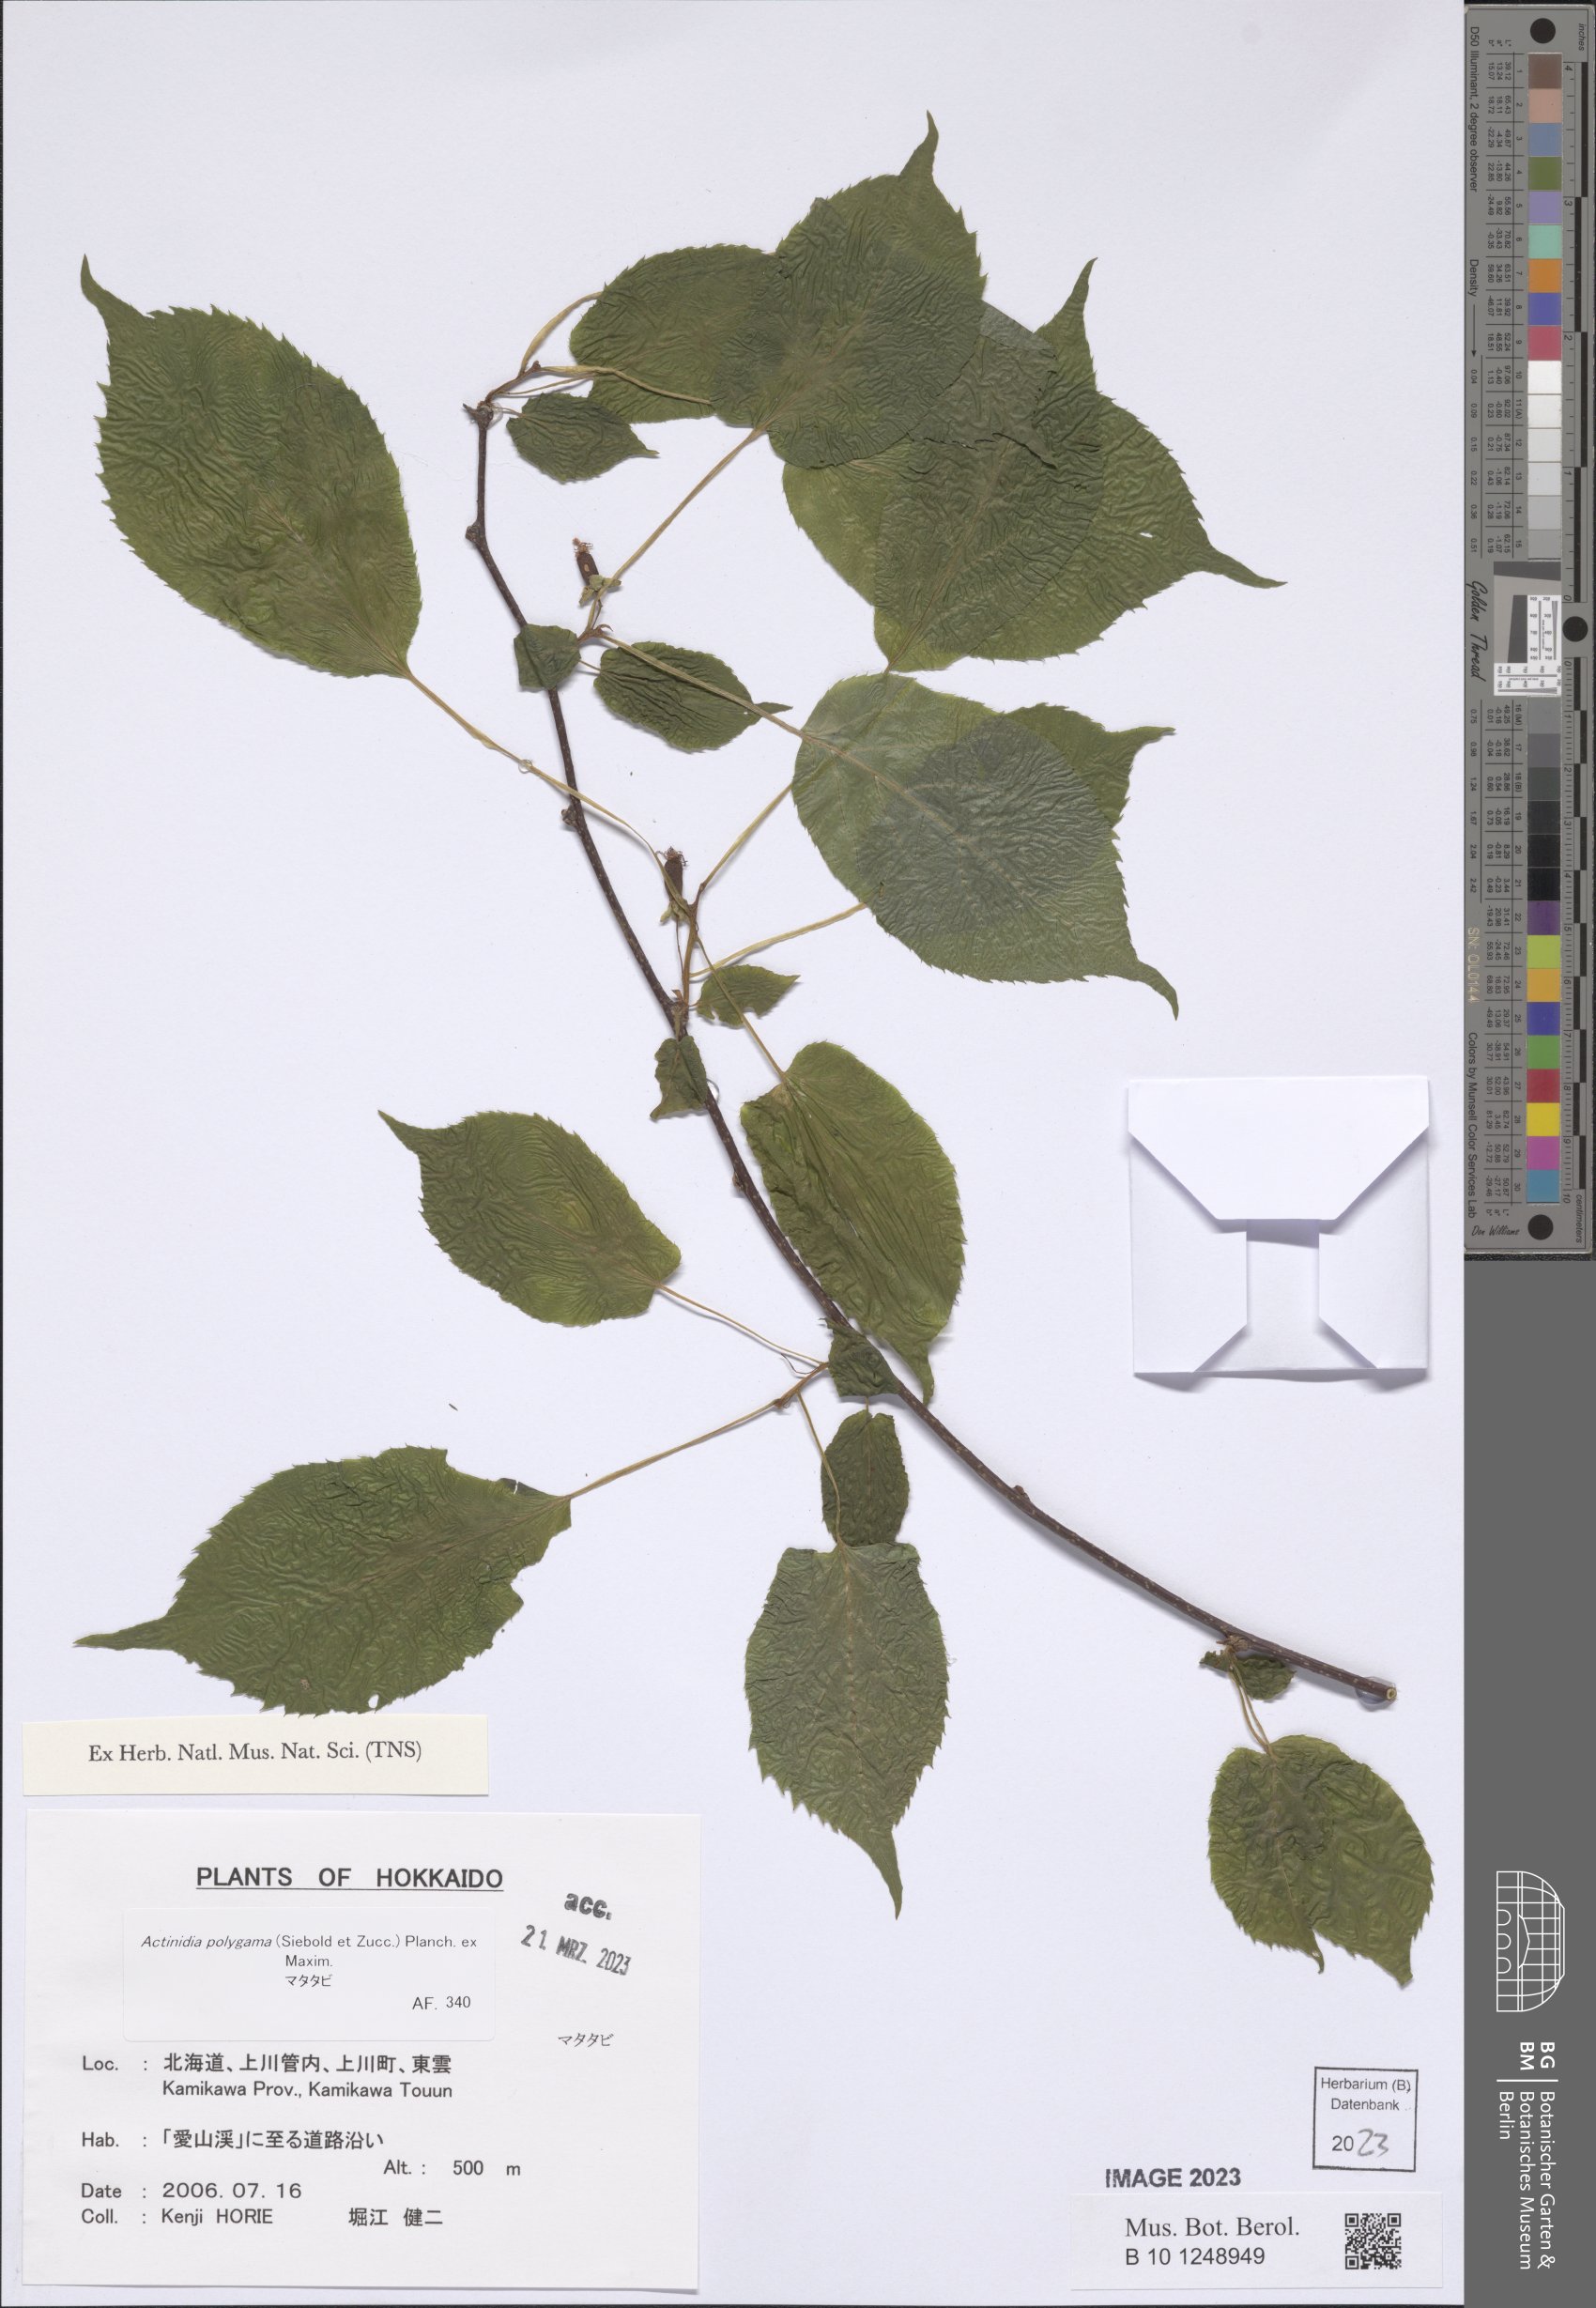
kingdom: Plantae
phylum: Tracheophyta
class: Magnoliopsida
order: Ericales
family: Actinidiaceae
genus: Actinidia
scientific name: Actinidia polygama
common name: Silver vine
